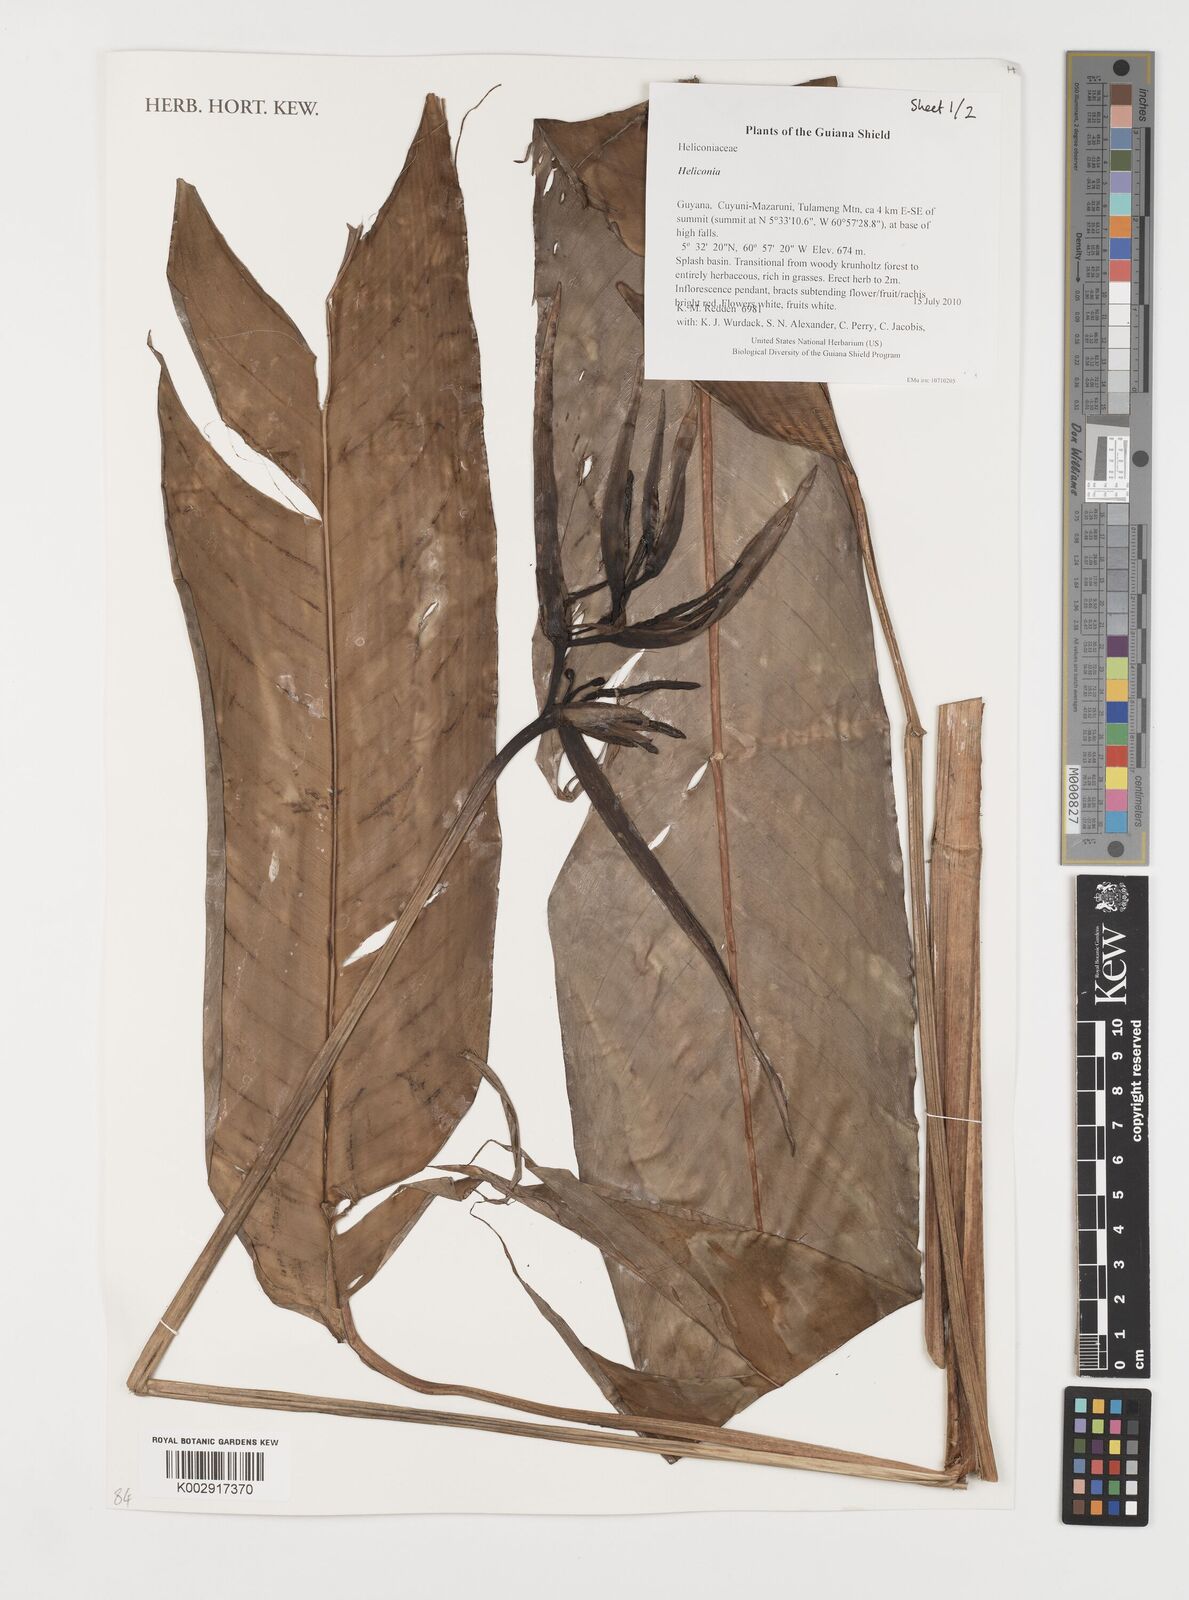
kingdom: Plantae
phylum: Tracheophyta
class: Liliopsida
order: Zingiberales
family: Heliconiaceae
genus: Heliconia
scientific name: Heliconia
